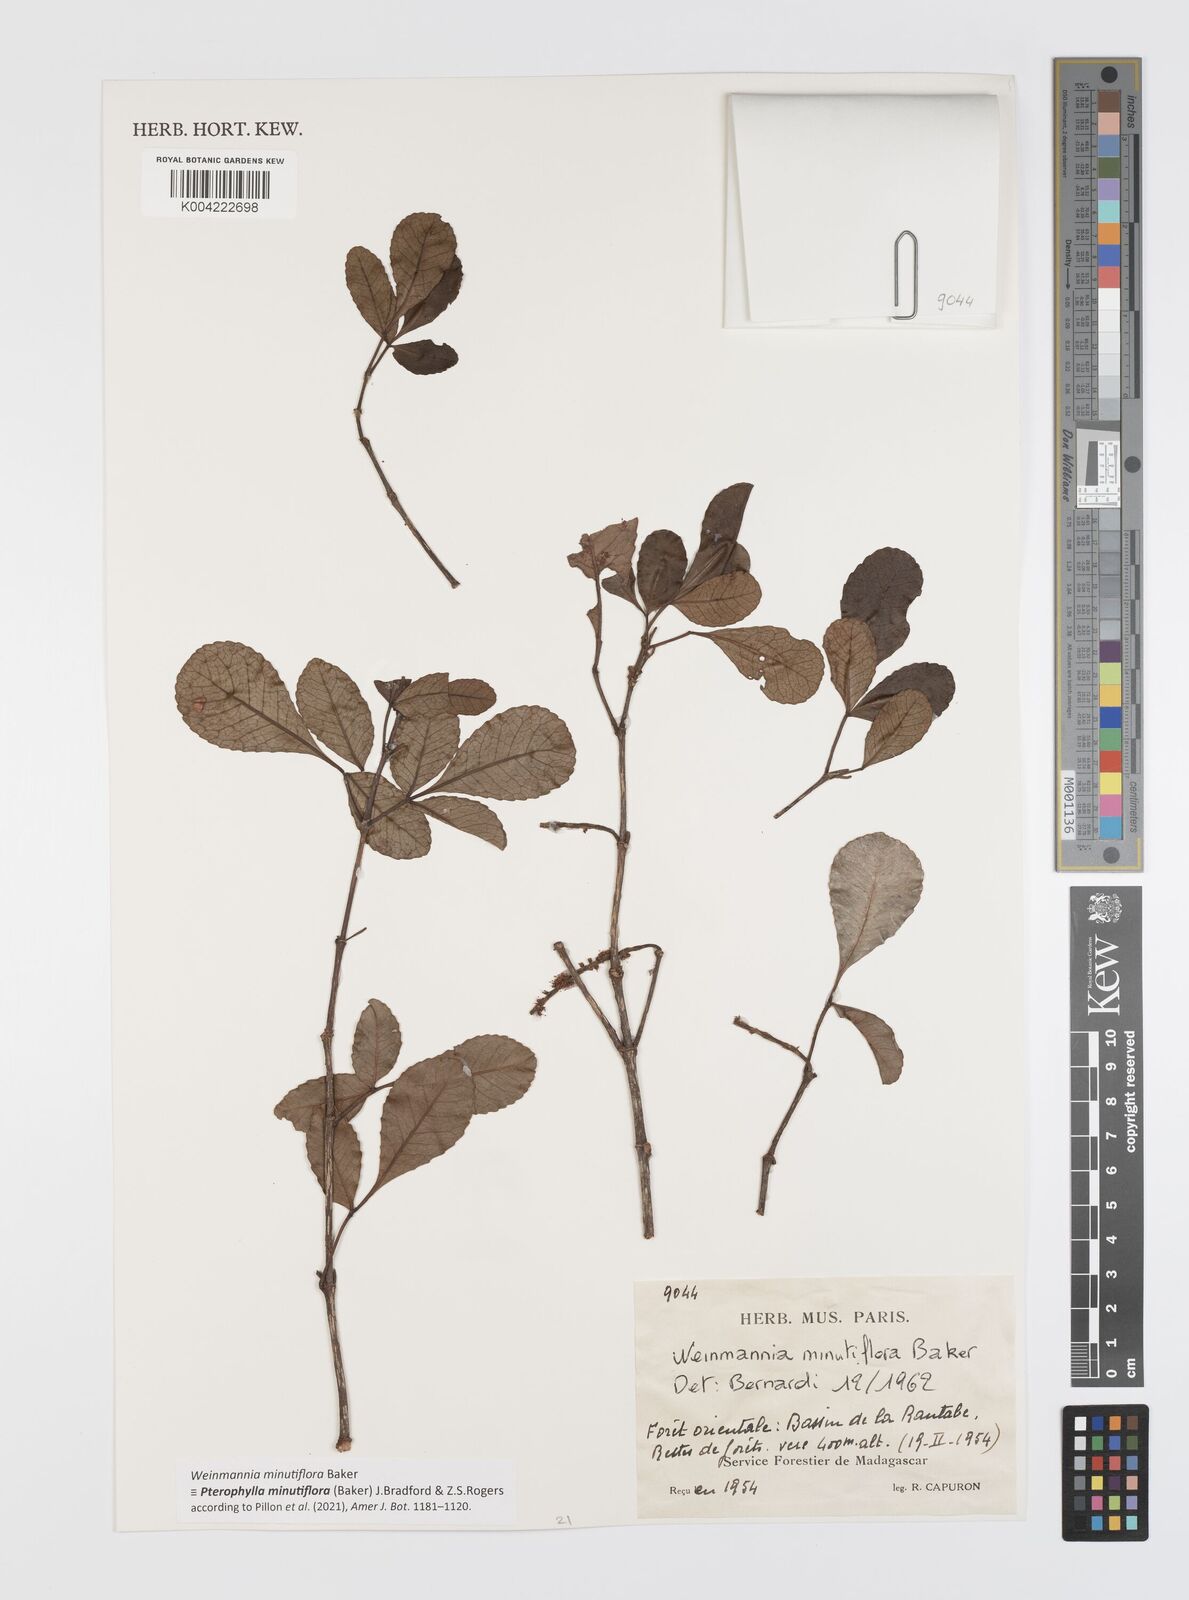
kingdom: Plantae
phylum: Tracheophyta
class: Magnoliopsida
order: Oxalidales
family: Cunoniaceae
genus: Pterophylla
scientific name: Pterophylla
